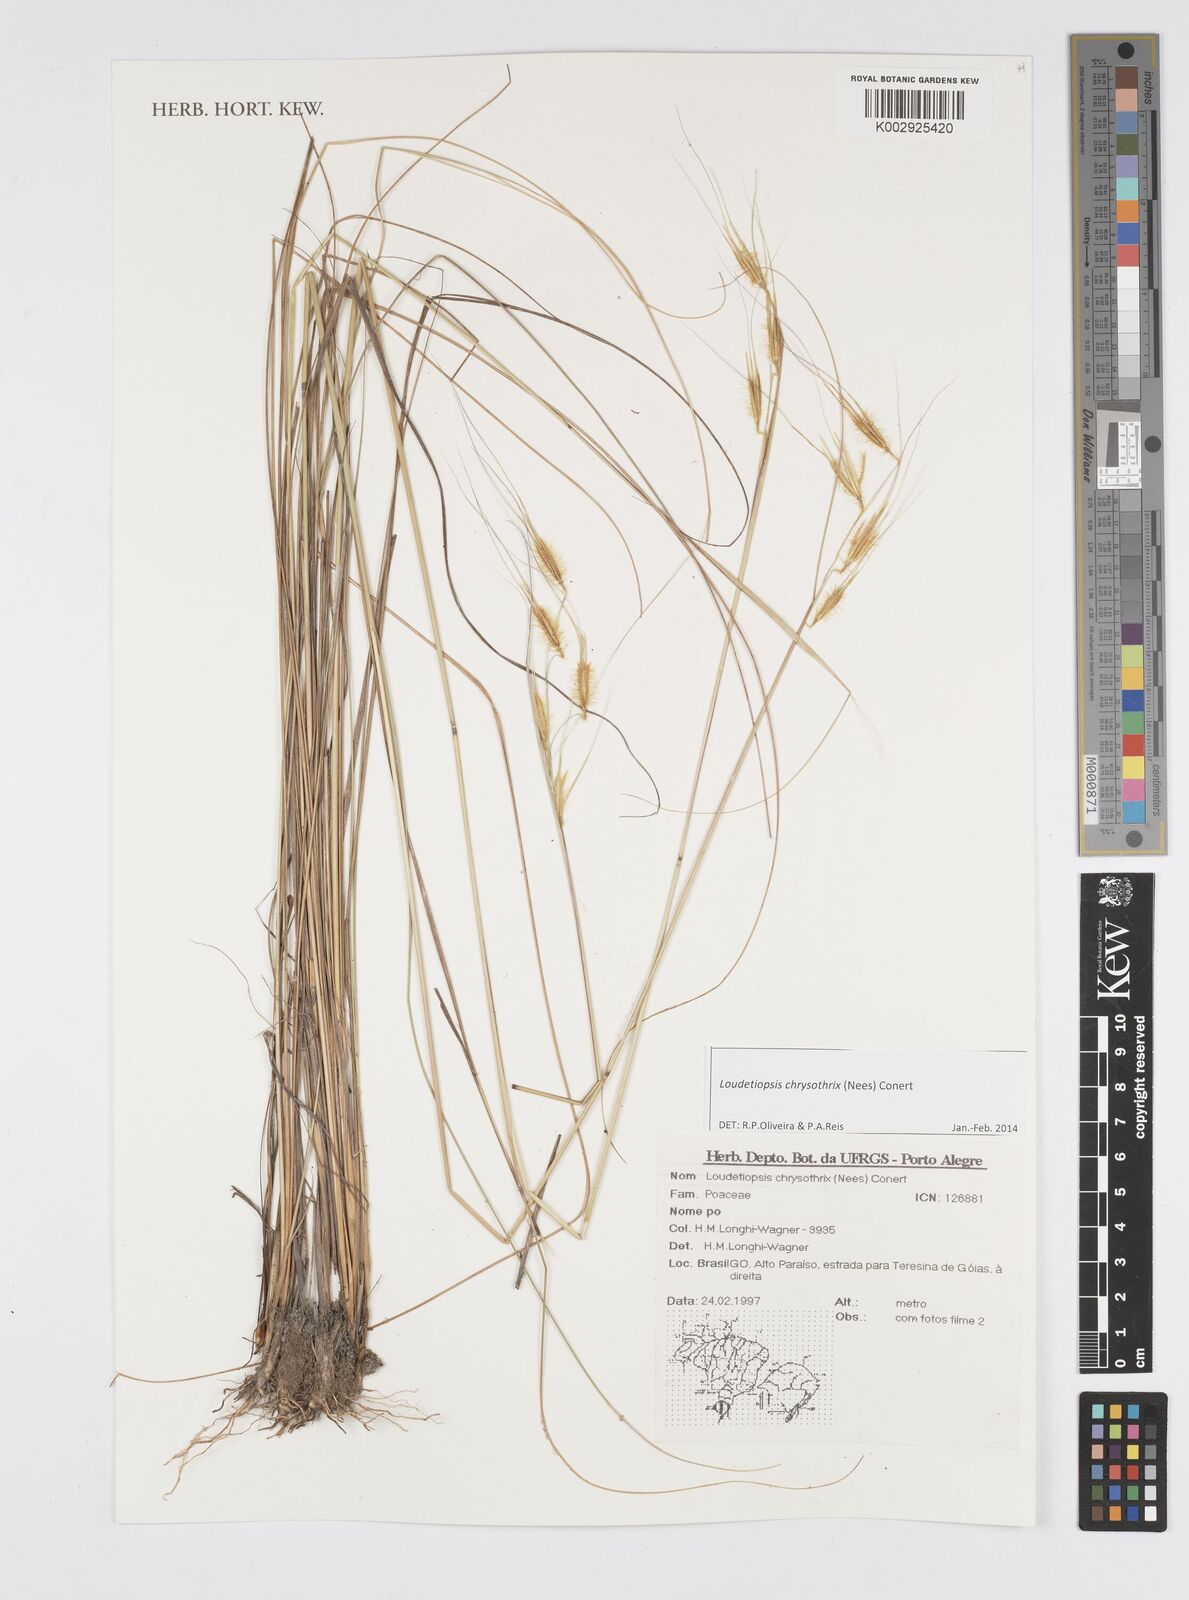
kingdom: Plantae
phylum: Tracheophyta
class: Liliopsida
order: Poales
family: Poaceae
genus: Loudetiopsis
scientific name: Loudetiopsis chrysothrix
